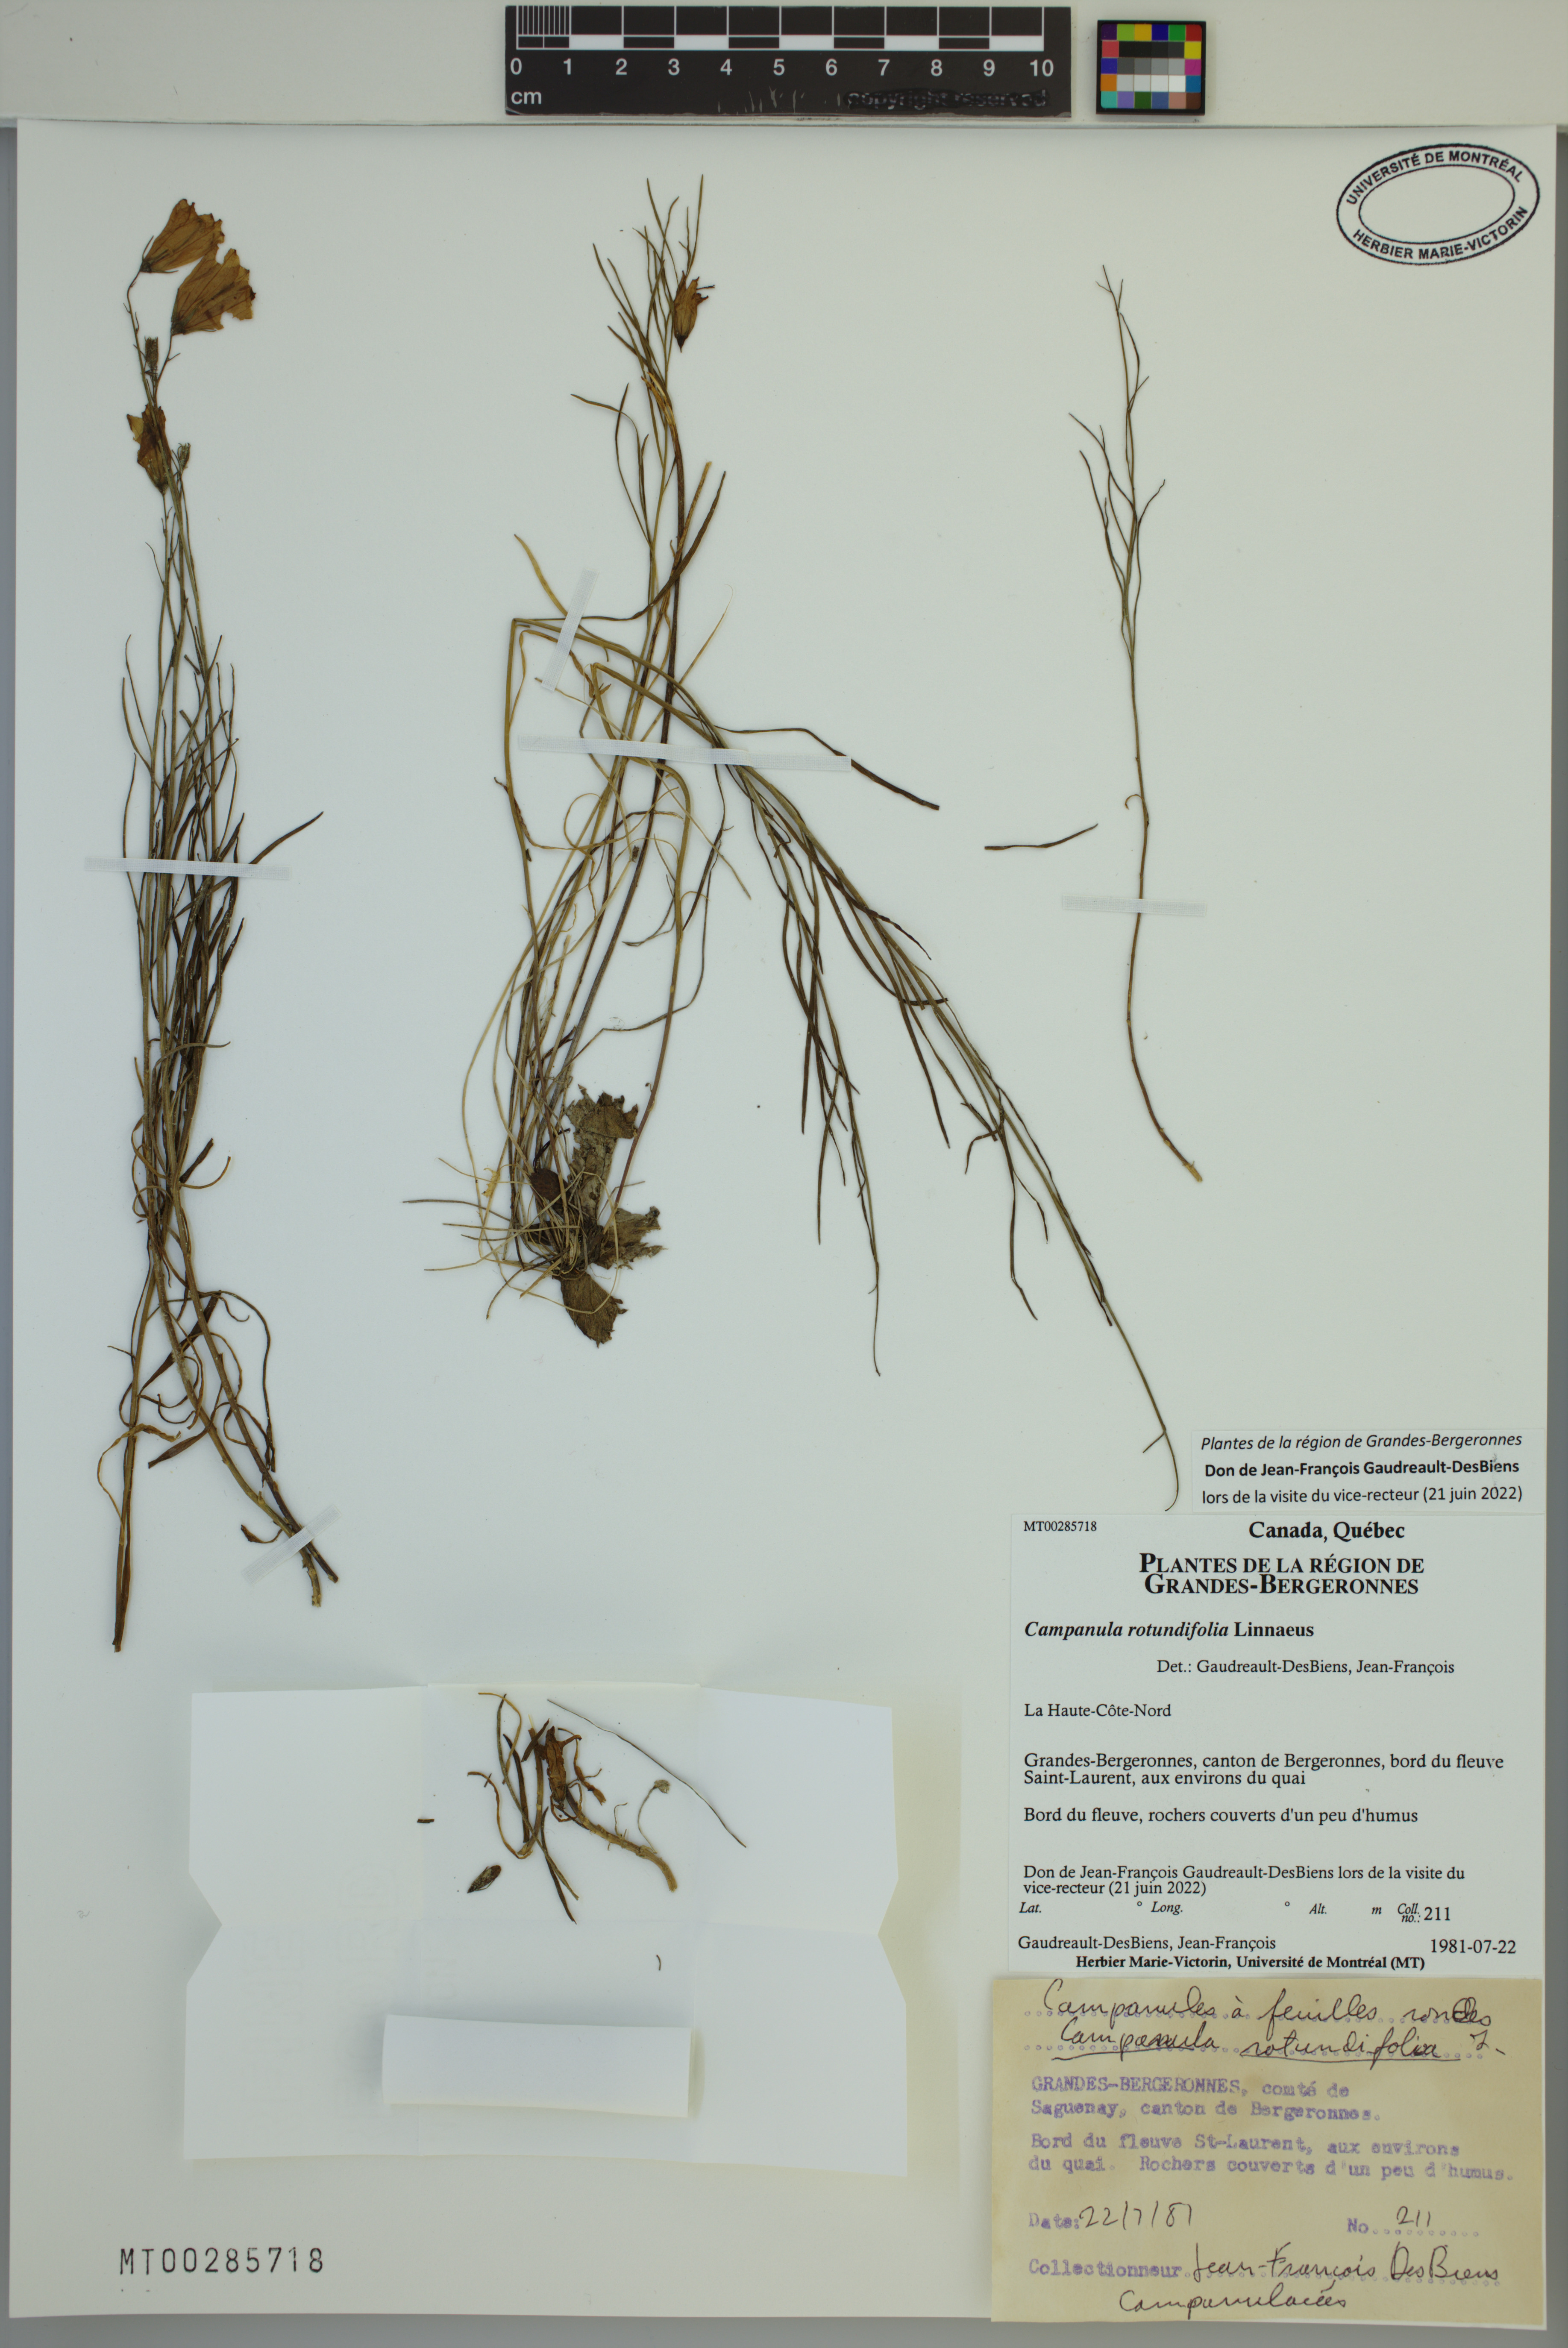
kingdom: Plantae
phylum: Tracheophyta
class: Magnoliopsida
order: Asterales
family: Campanulaceae
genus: Campanula
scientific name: Campanula rotundifolia
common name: Harebell
